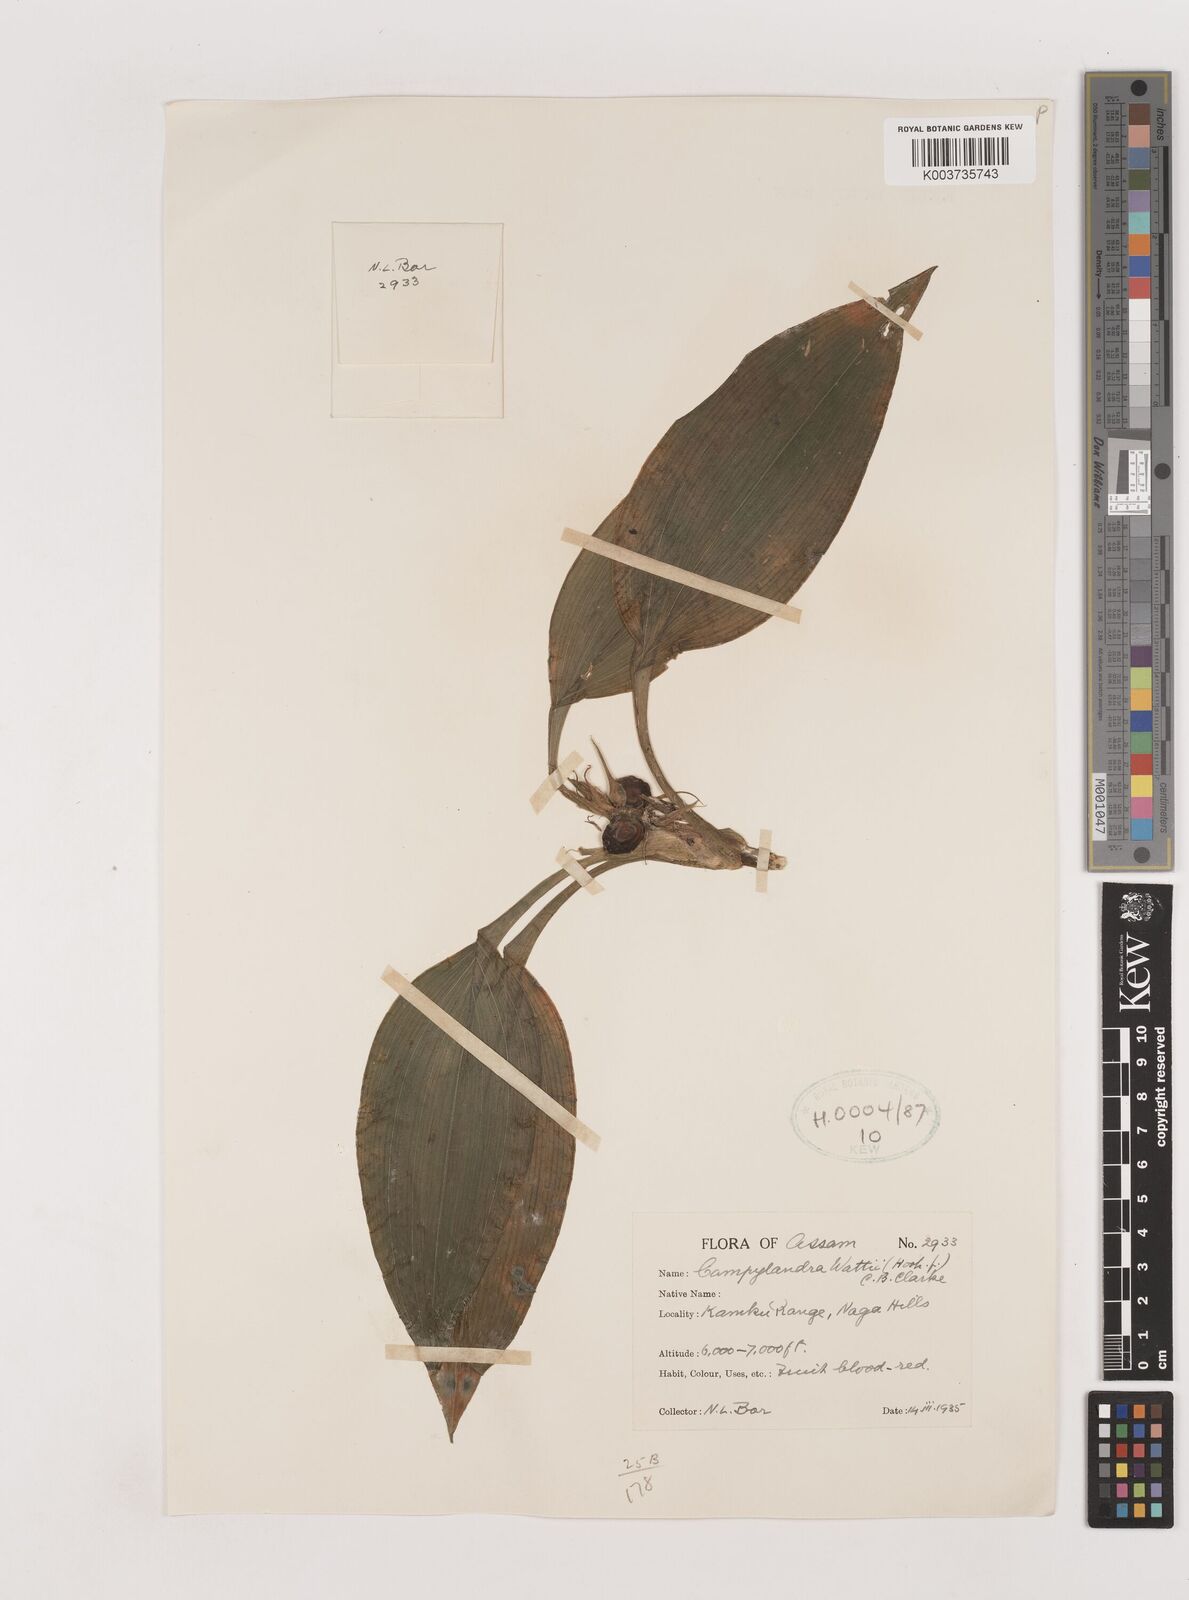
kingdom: Plantae
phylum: Tracheophyta
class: Liliopsida
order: Asparagales
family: Asparagaceae
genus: Rohdea
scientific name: Rohdea wattii
